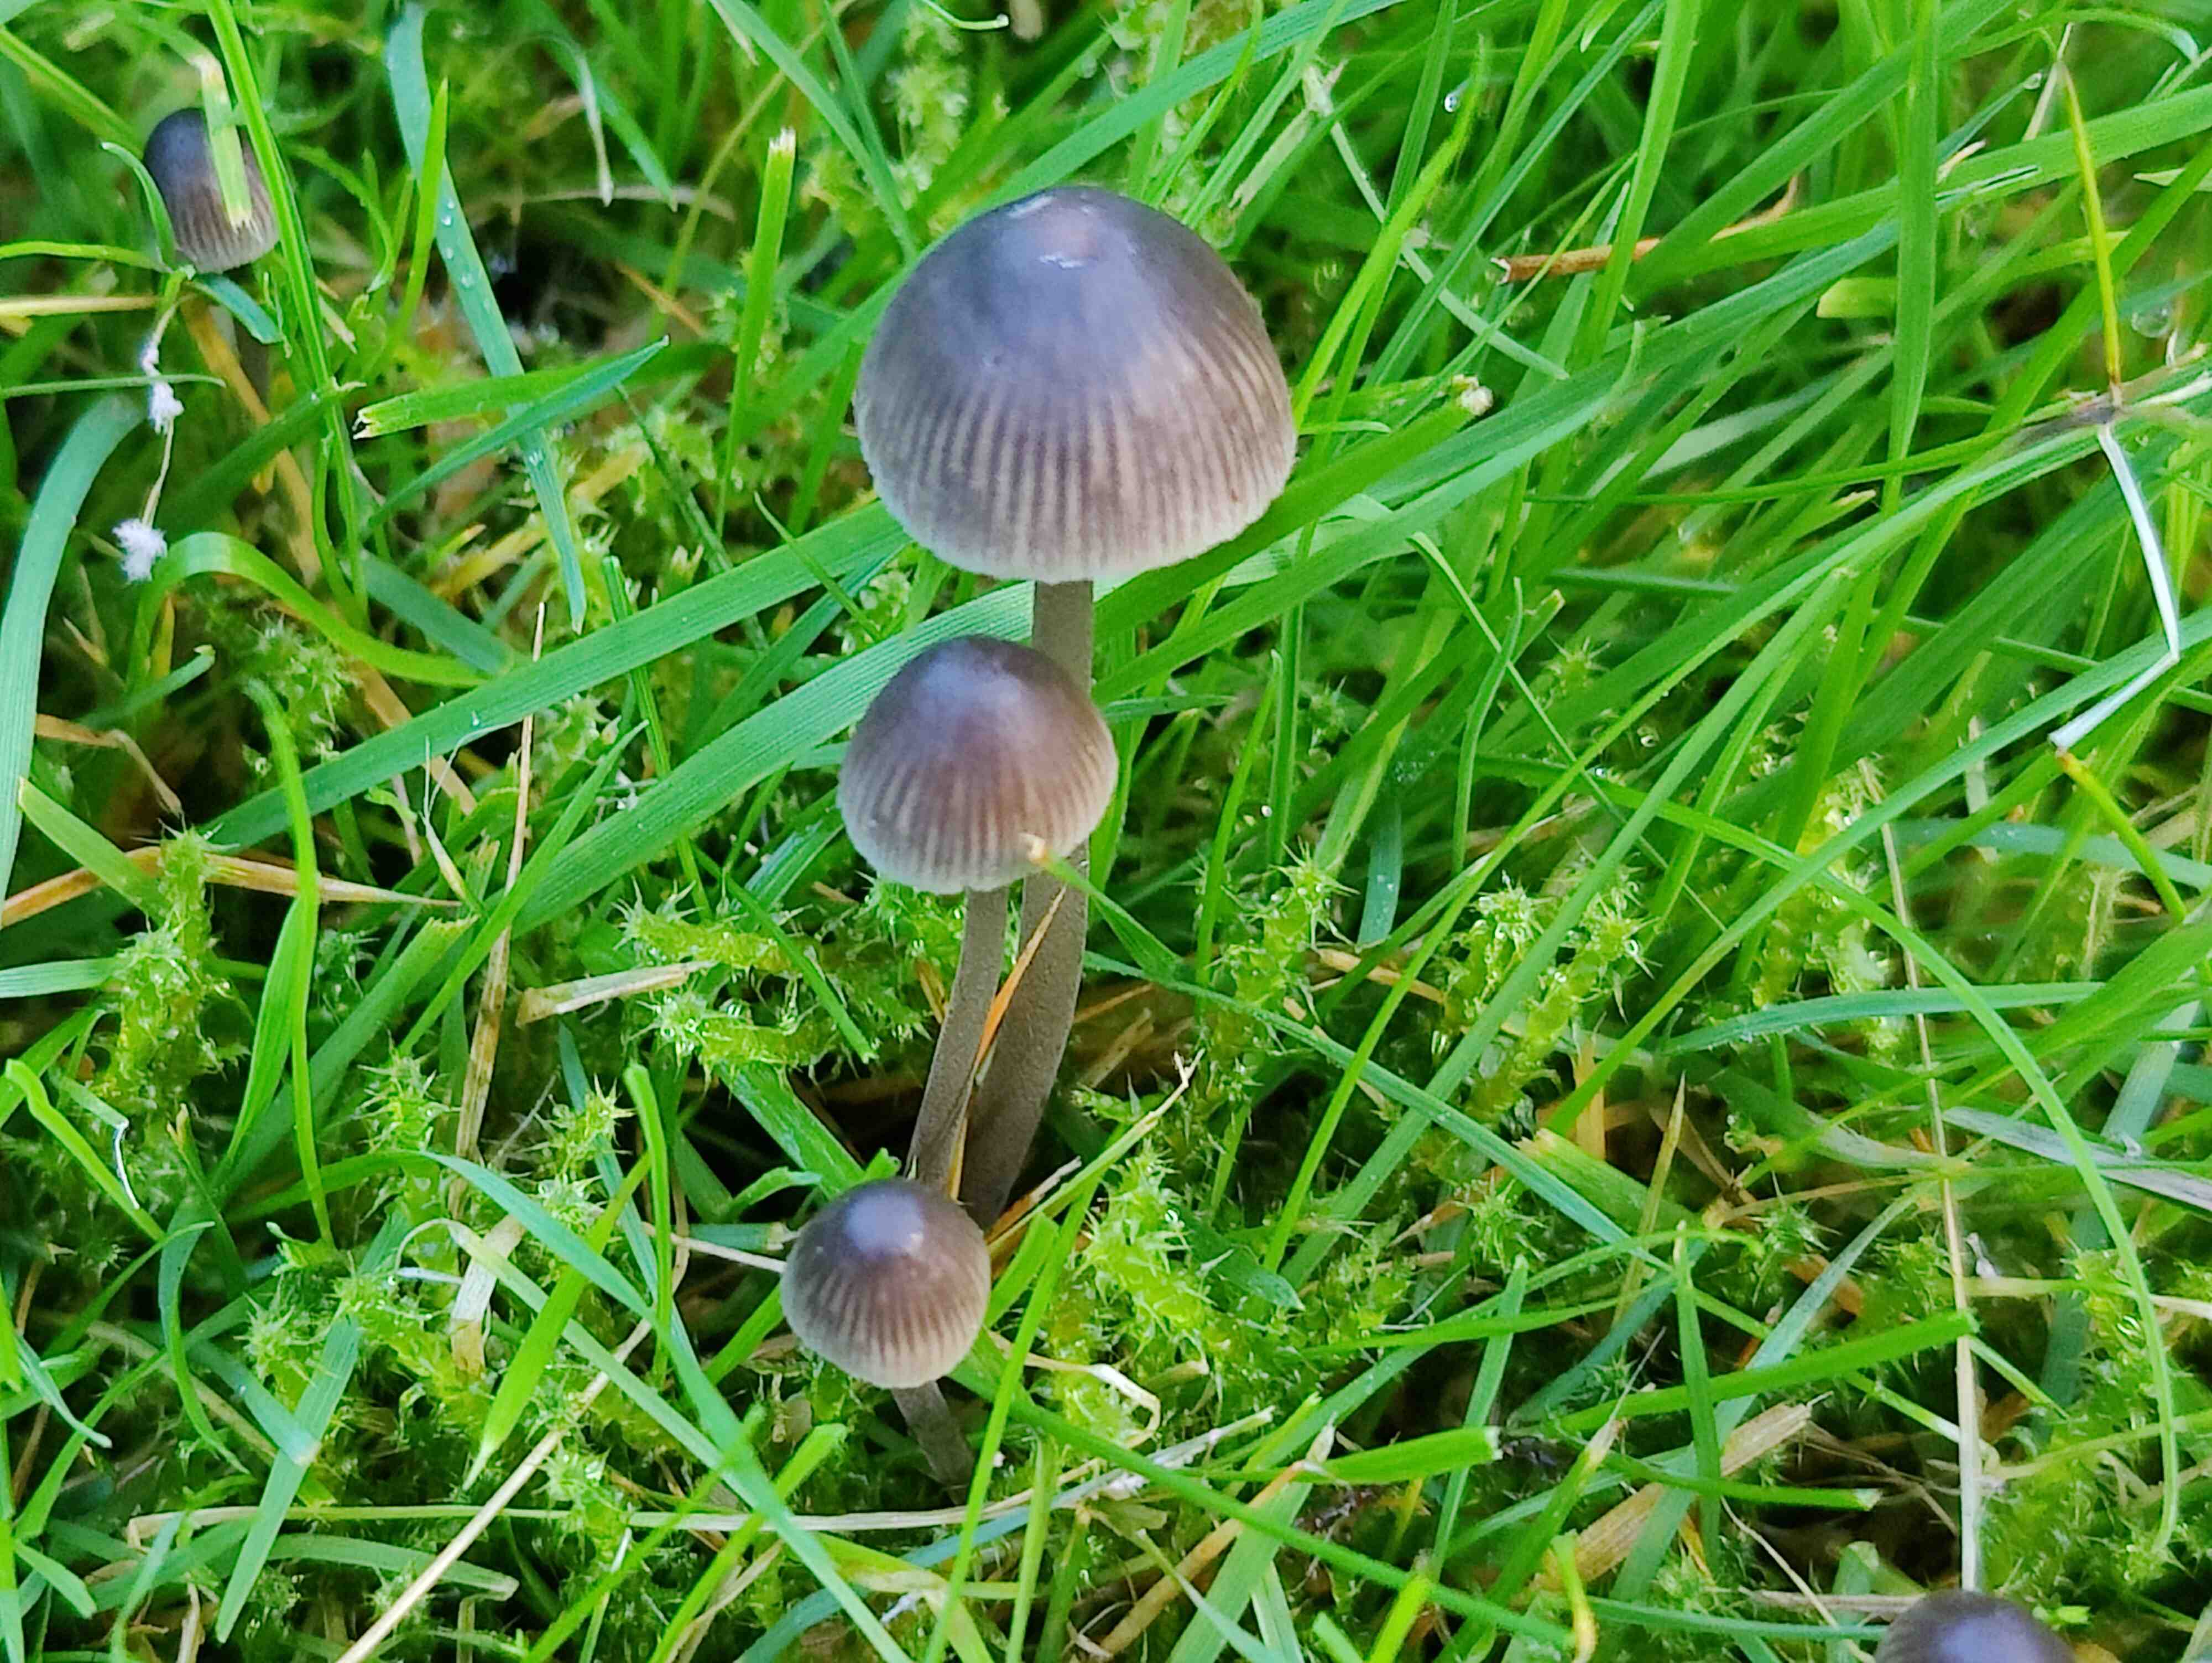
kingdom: Fungi
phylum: Basidiomycota
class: Agaricomycetes
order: Agaricales
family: Mycenaceae
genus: Mycena
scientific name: Mycena aetites
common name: plæne-huesvamp
